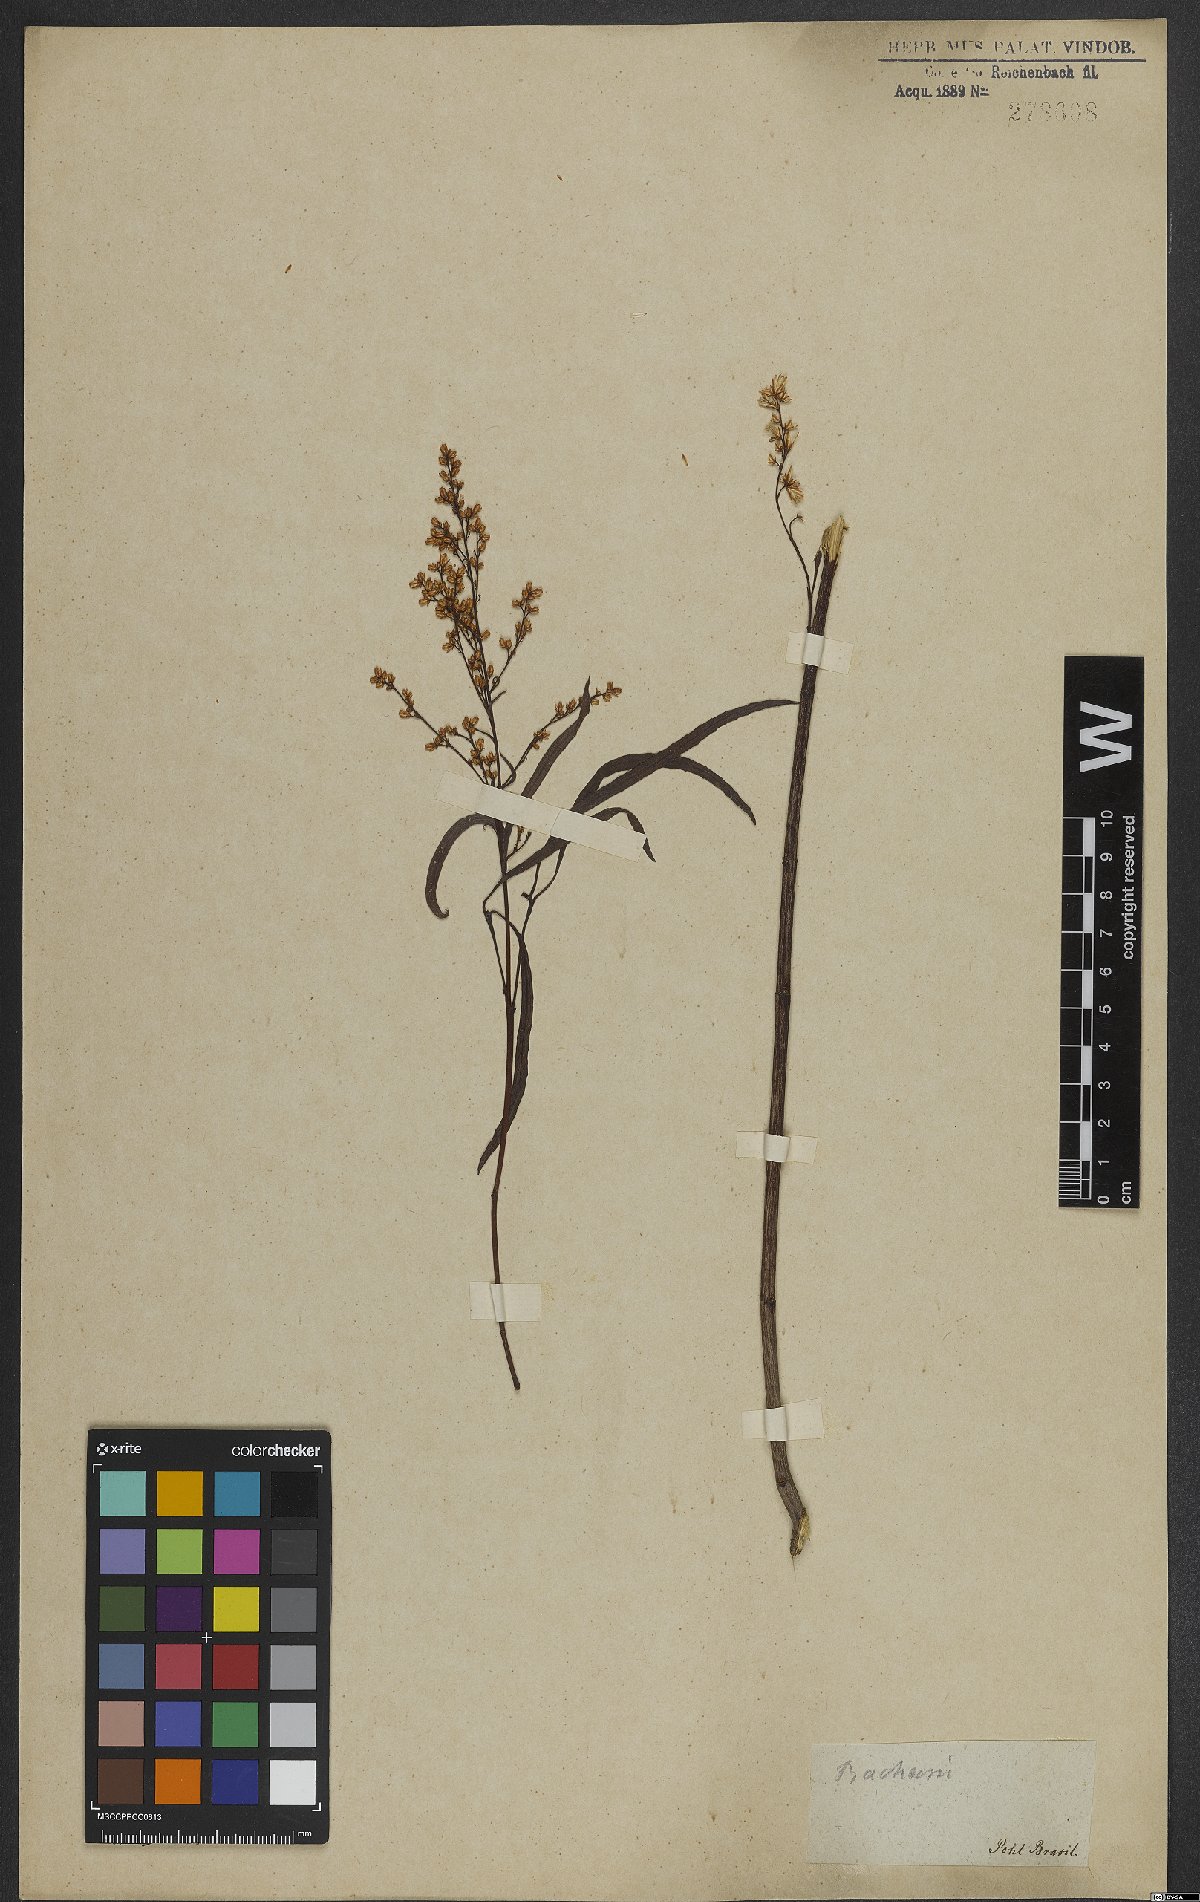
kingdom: Plantae
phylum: Tracheophyta
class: Magnoliopsida
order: Asterales
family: Asteraceae
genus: Baccharis
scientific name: Baccharis
